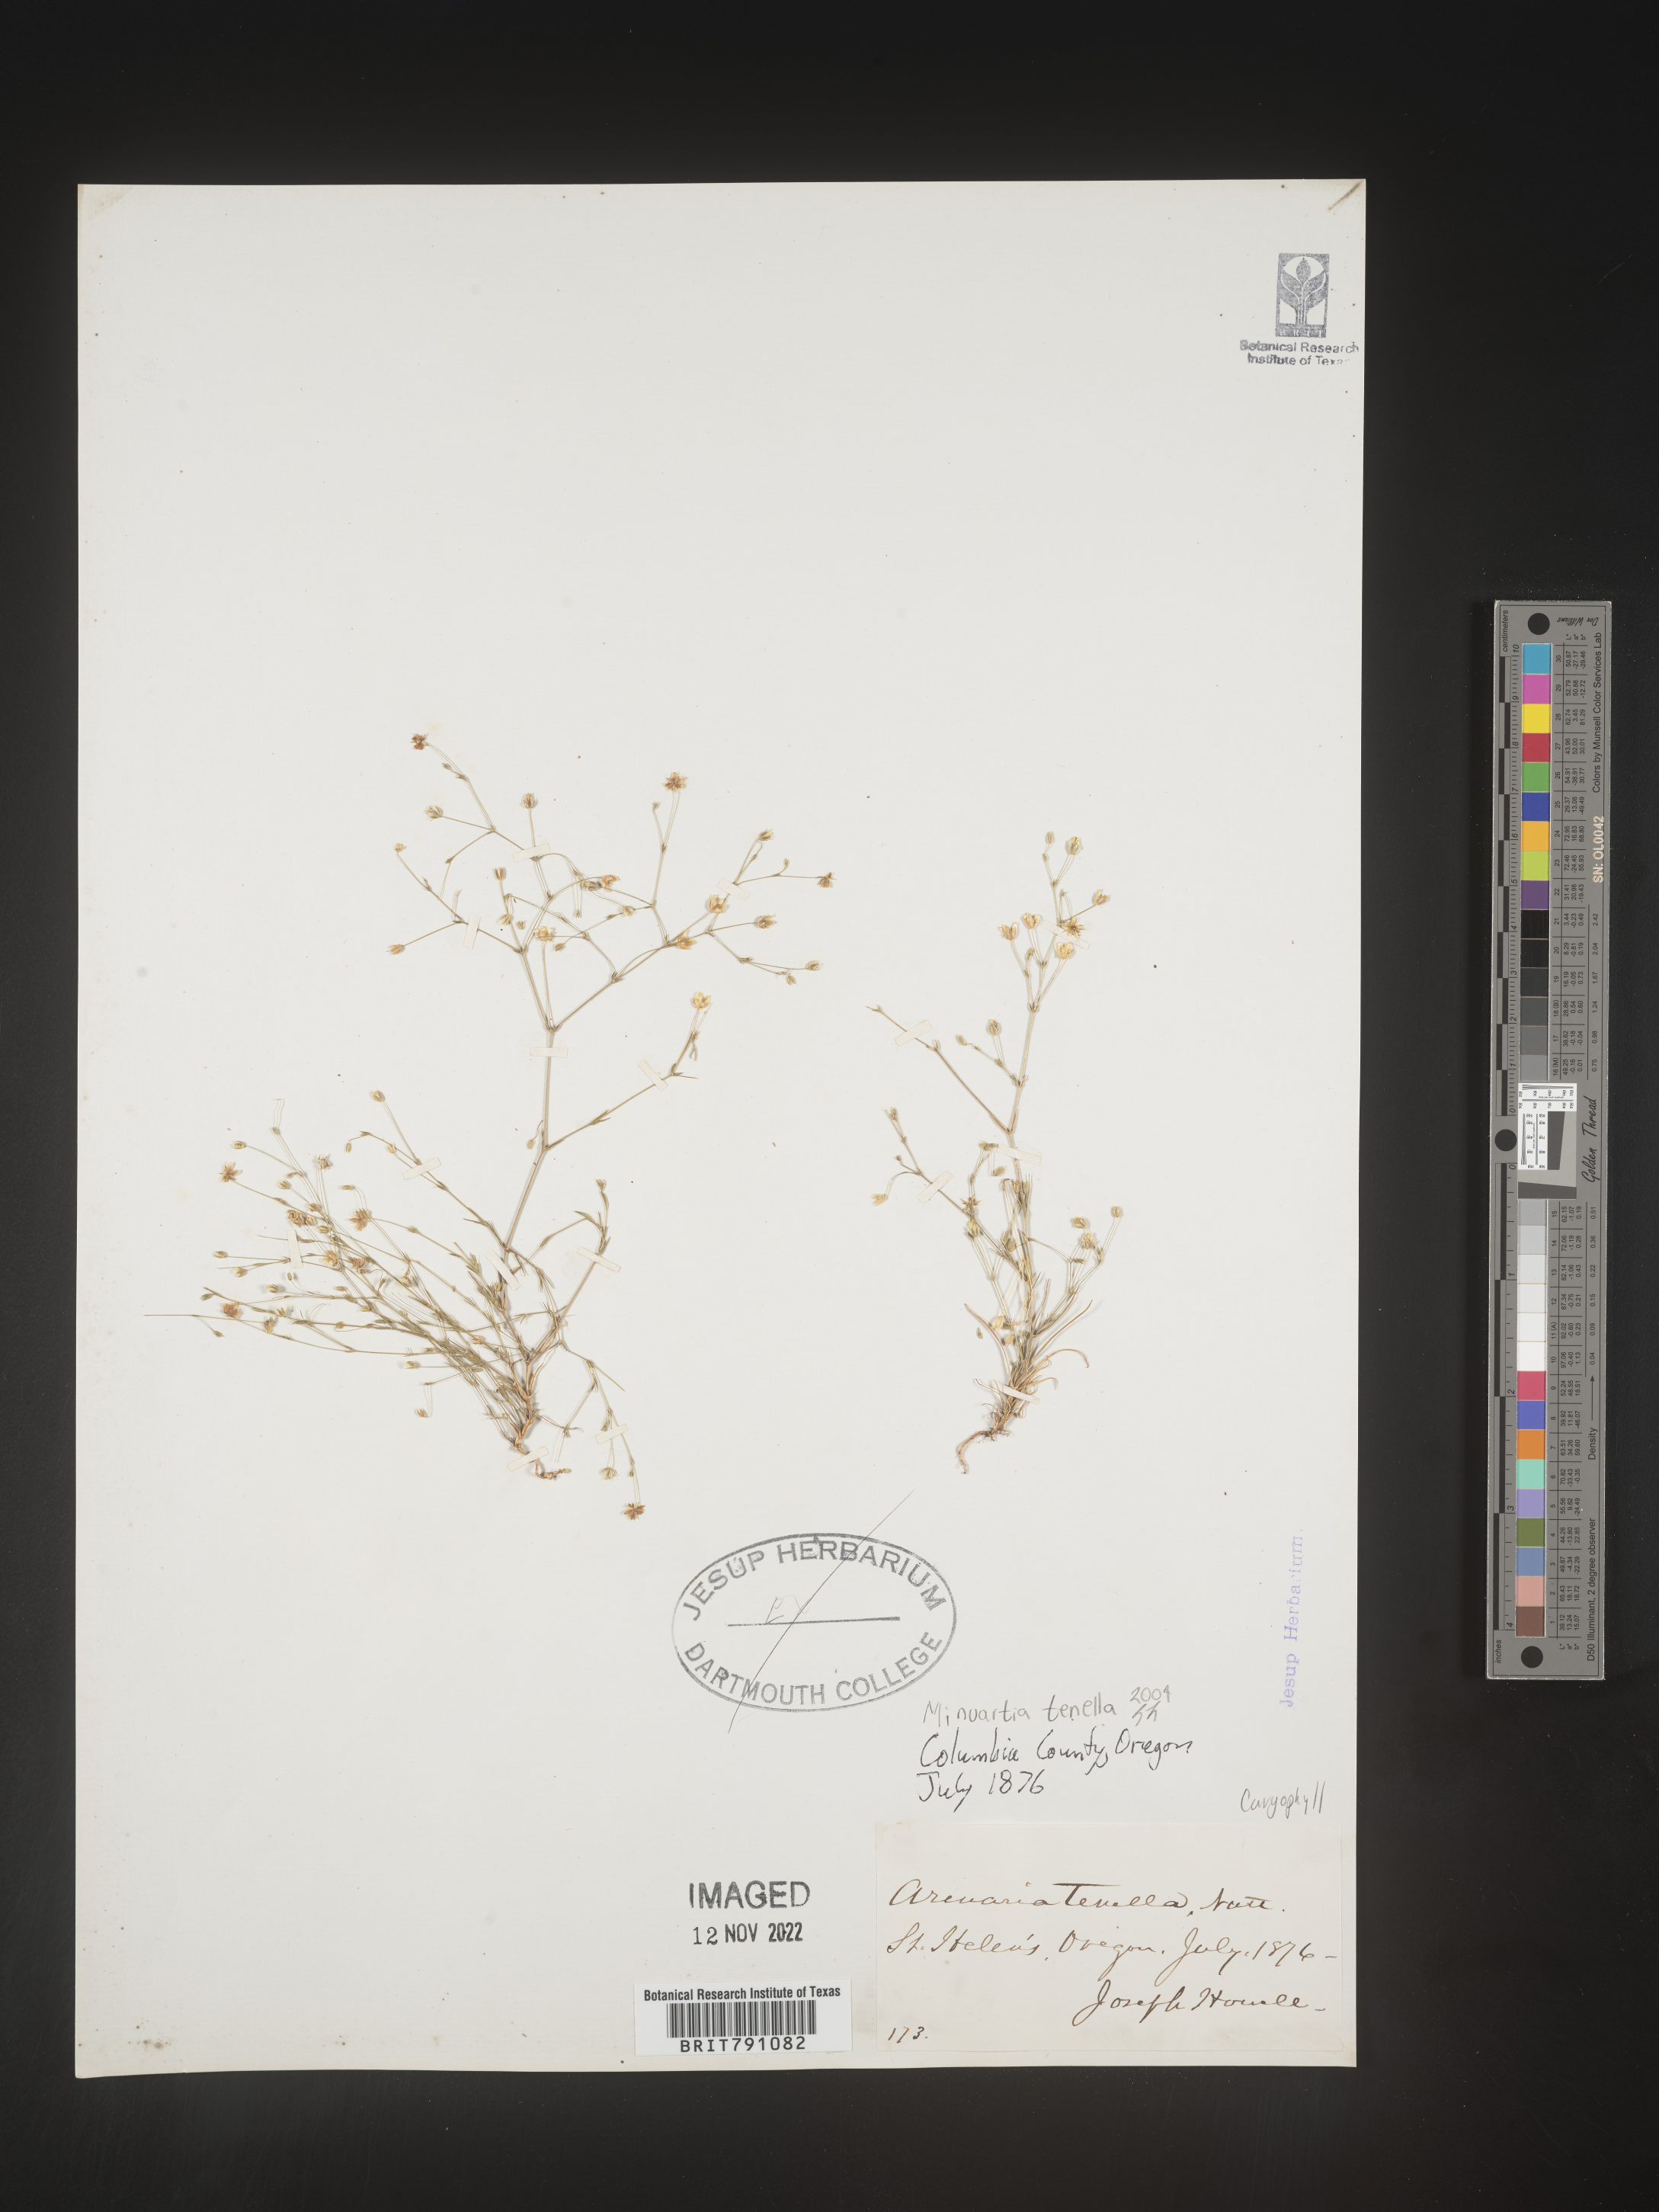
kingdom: Plantae
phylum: Tracheophyta
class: Magnoliopsida
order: Caryophyllales
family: Caryophyllaceae
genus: Minuartia
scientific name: Minuartia
